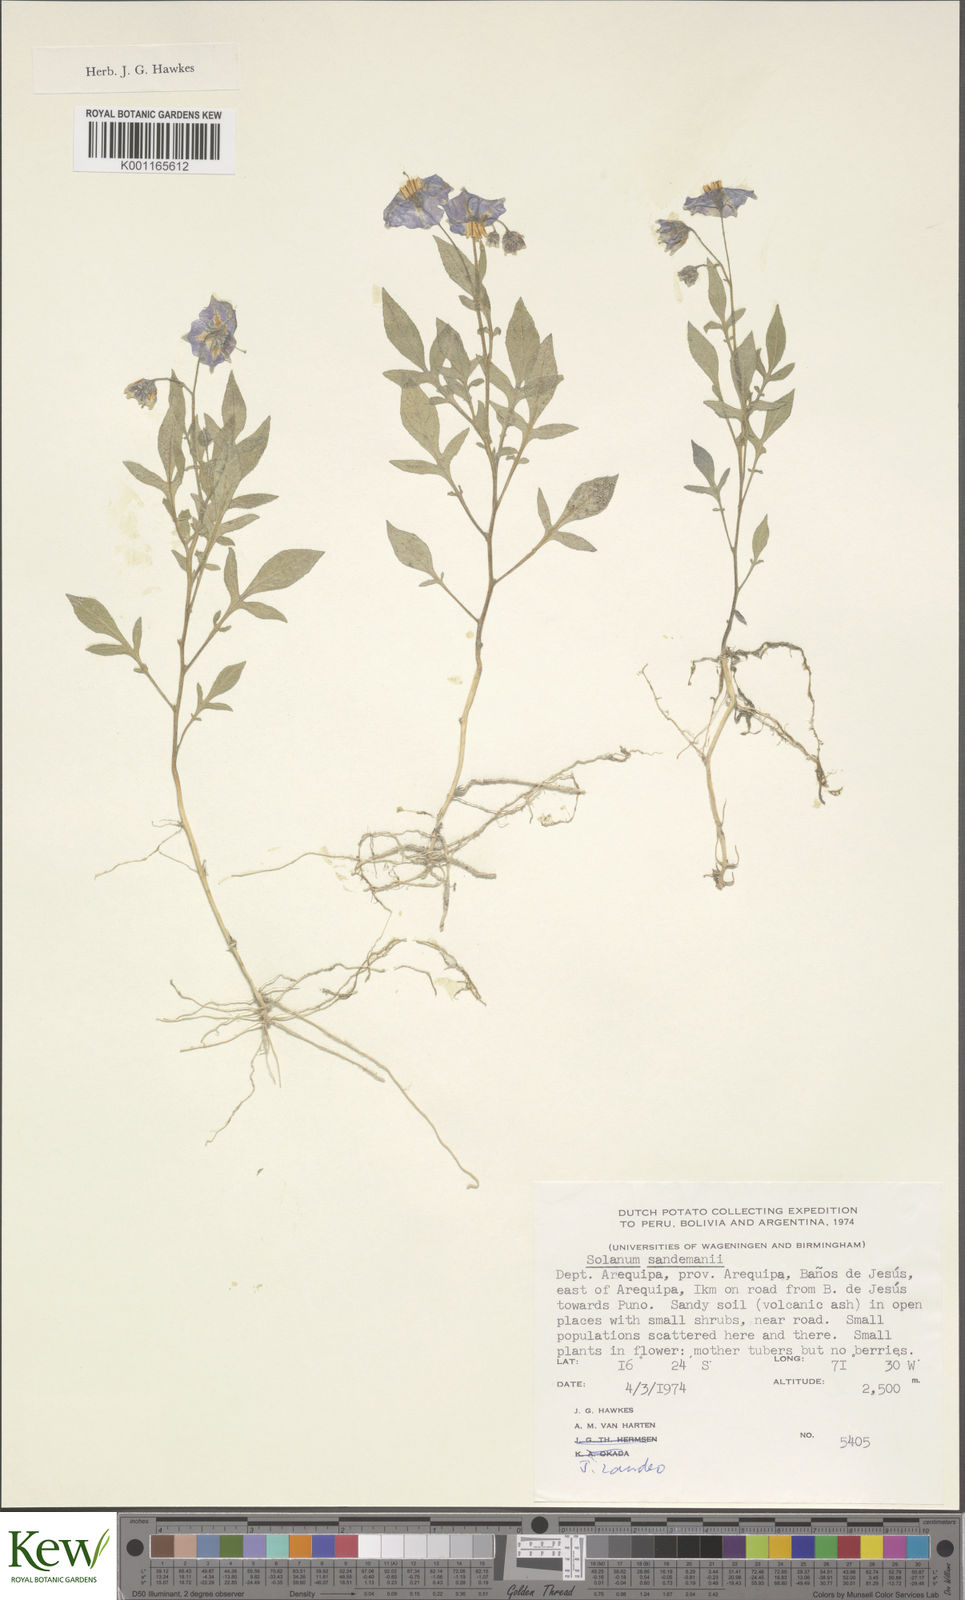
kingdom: Plantae
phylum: Tracheophyta
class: Magnoliopsida
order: Solanales
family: Solanaceae
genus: Solanum
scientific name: Solanum medians
